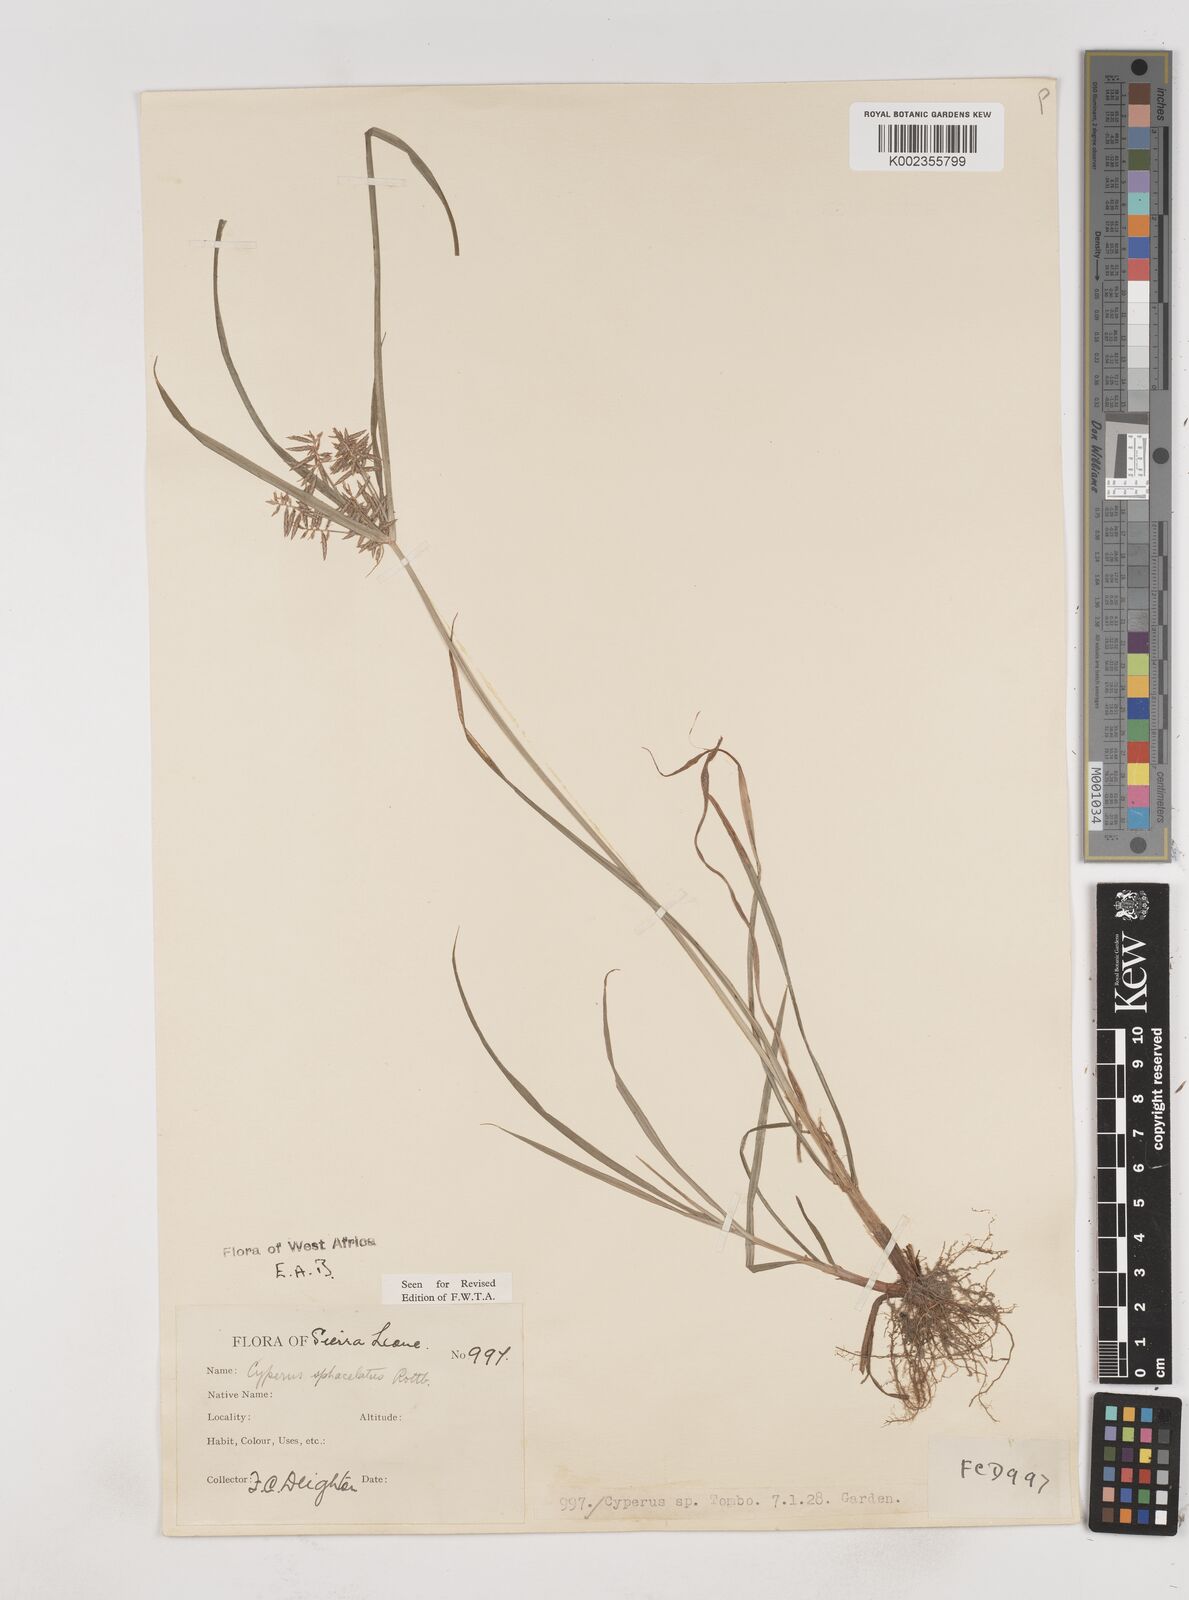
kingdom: Plantae
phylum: Tracheophyta
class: Liliopsida
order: Poales
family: Cyperaceae
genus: Cyperus
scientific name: Cyperus sphacelatus
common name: Roadside flatsedge
